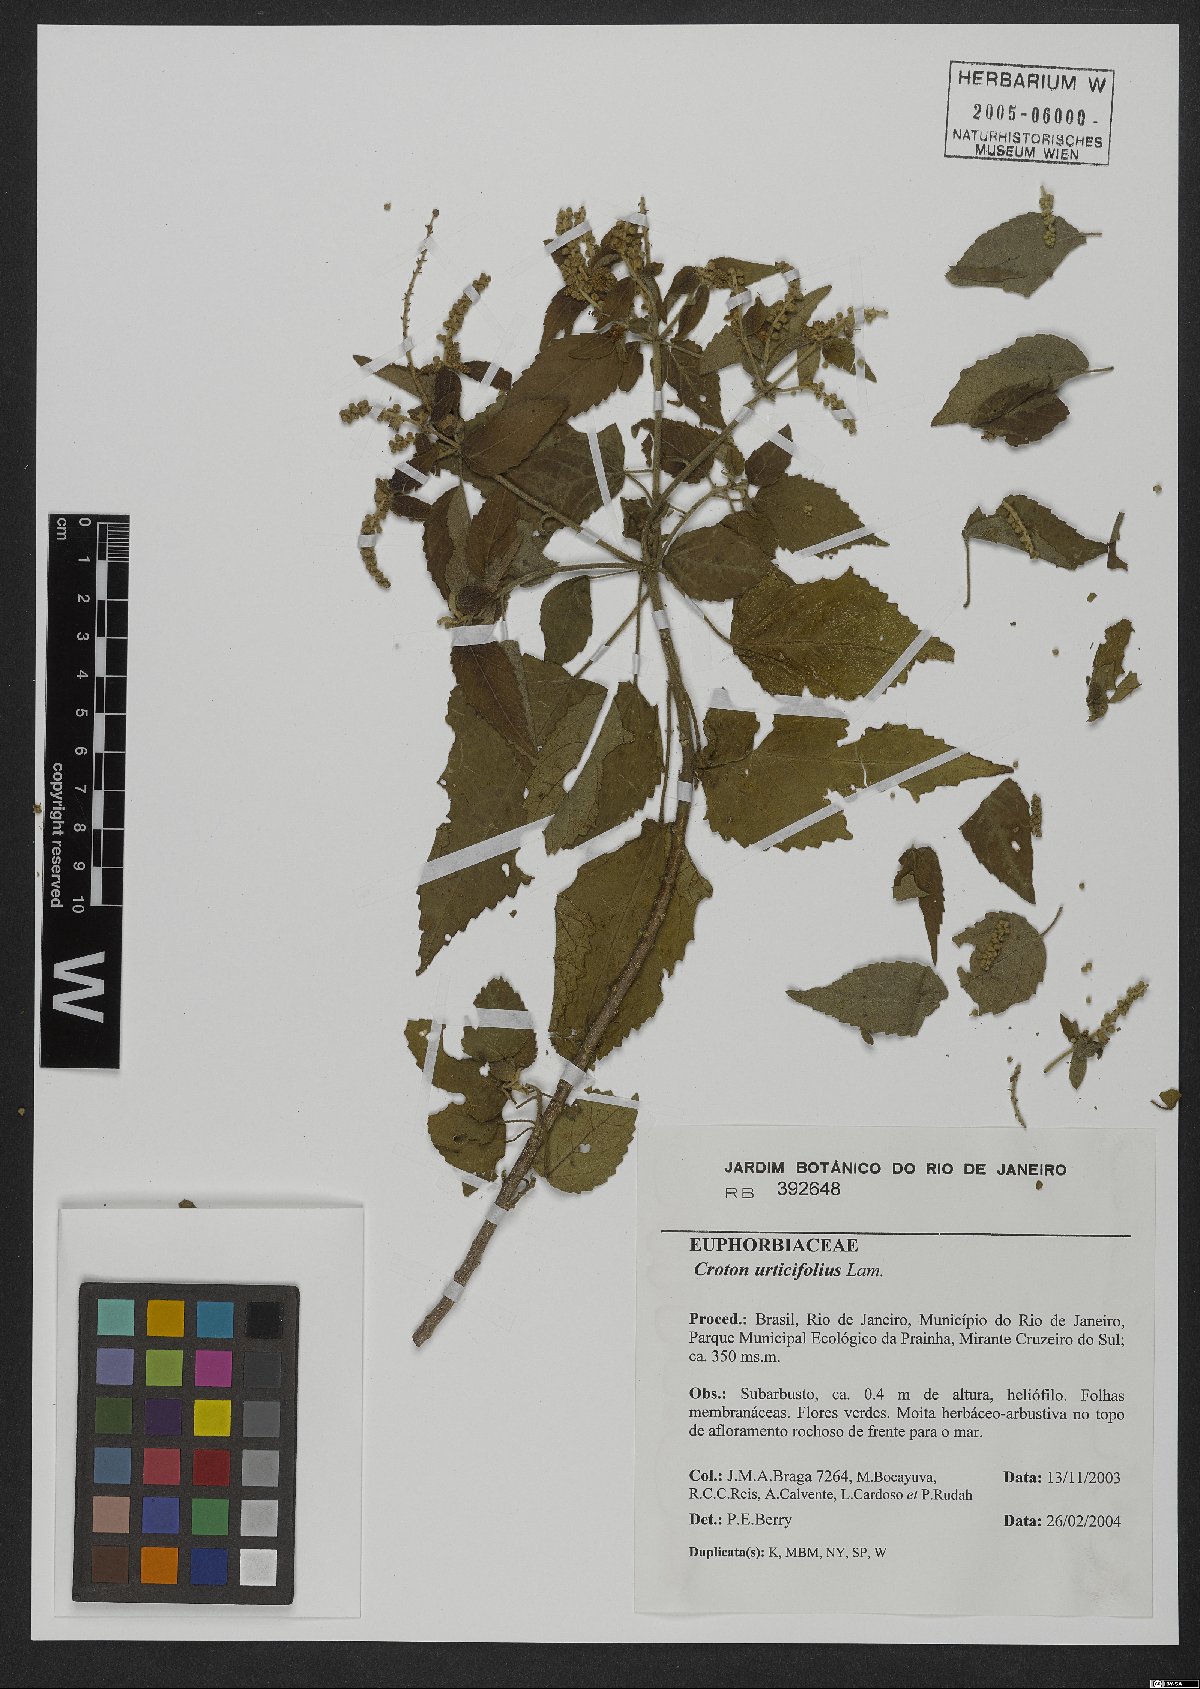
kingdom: Plantae
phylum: Tracheophyta
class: Magnoliopsida
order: Malpighiales
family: Euphorbiaceae
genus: Croton
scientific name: Croton urticifolius
